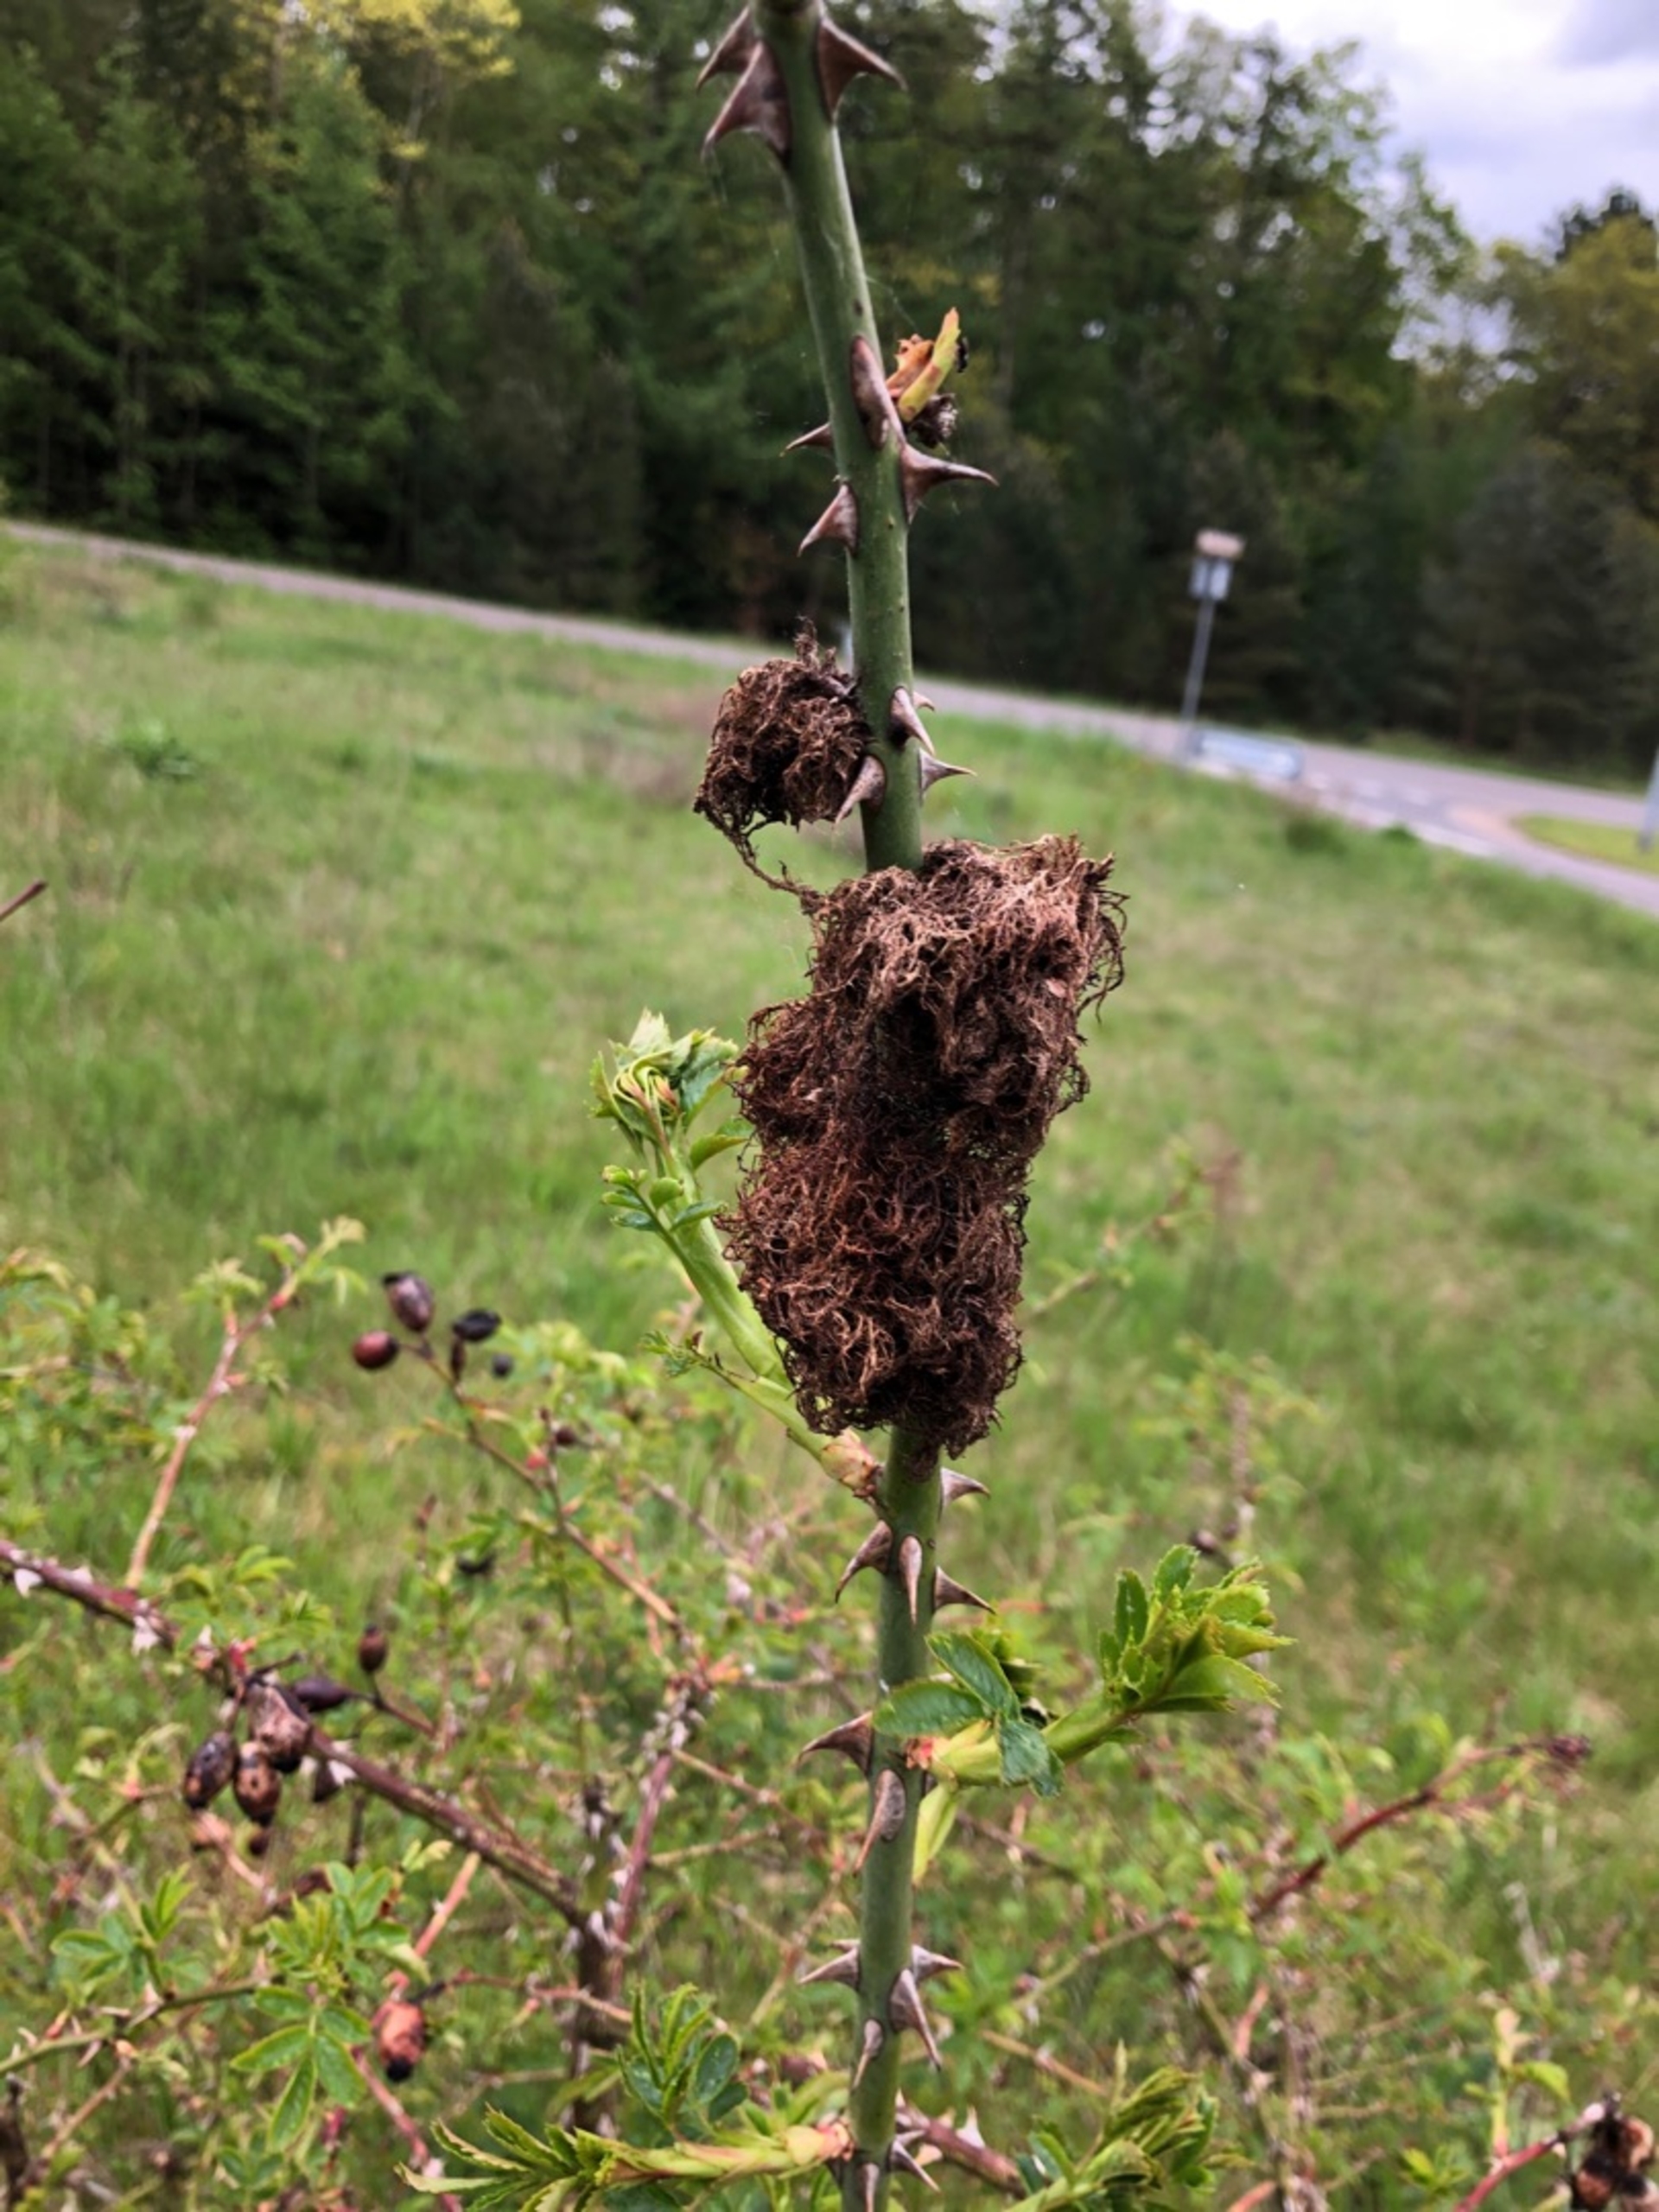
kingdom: Animalia
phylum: Arthropoda
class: Insecta
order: Hymenoptera
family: Cynipidae
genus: Diplolepis
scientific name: Diplolepis rosae
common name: Bedeguargalhveps
